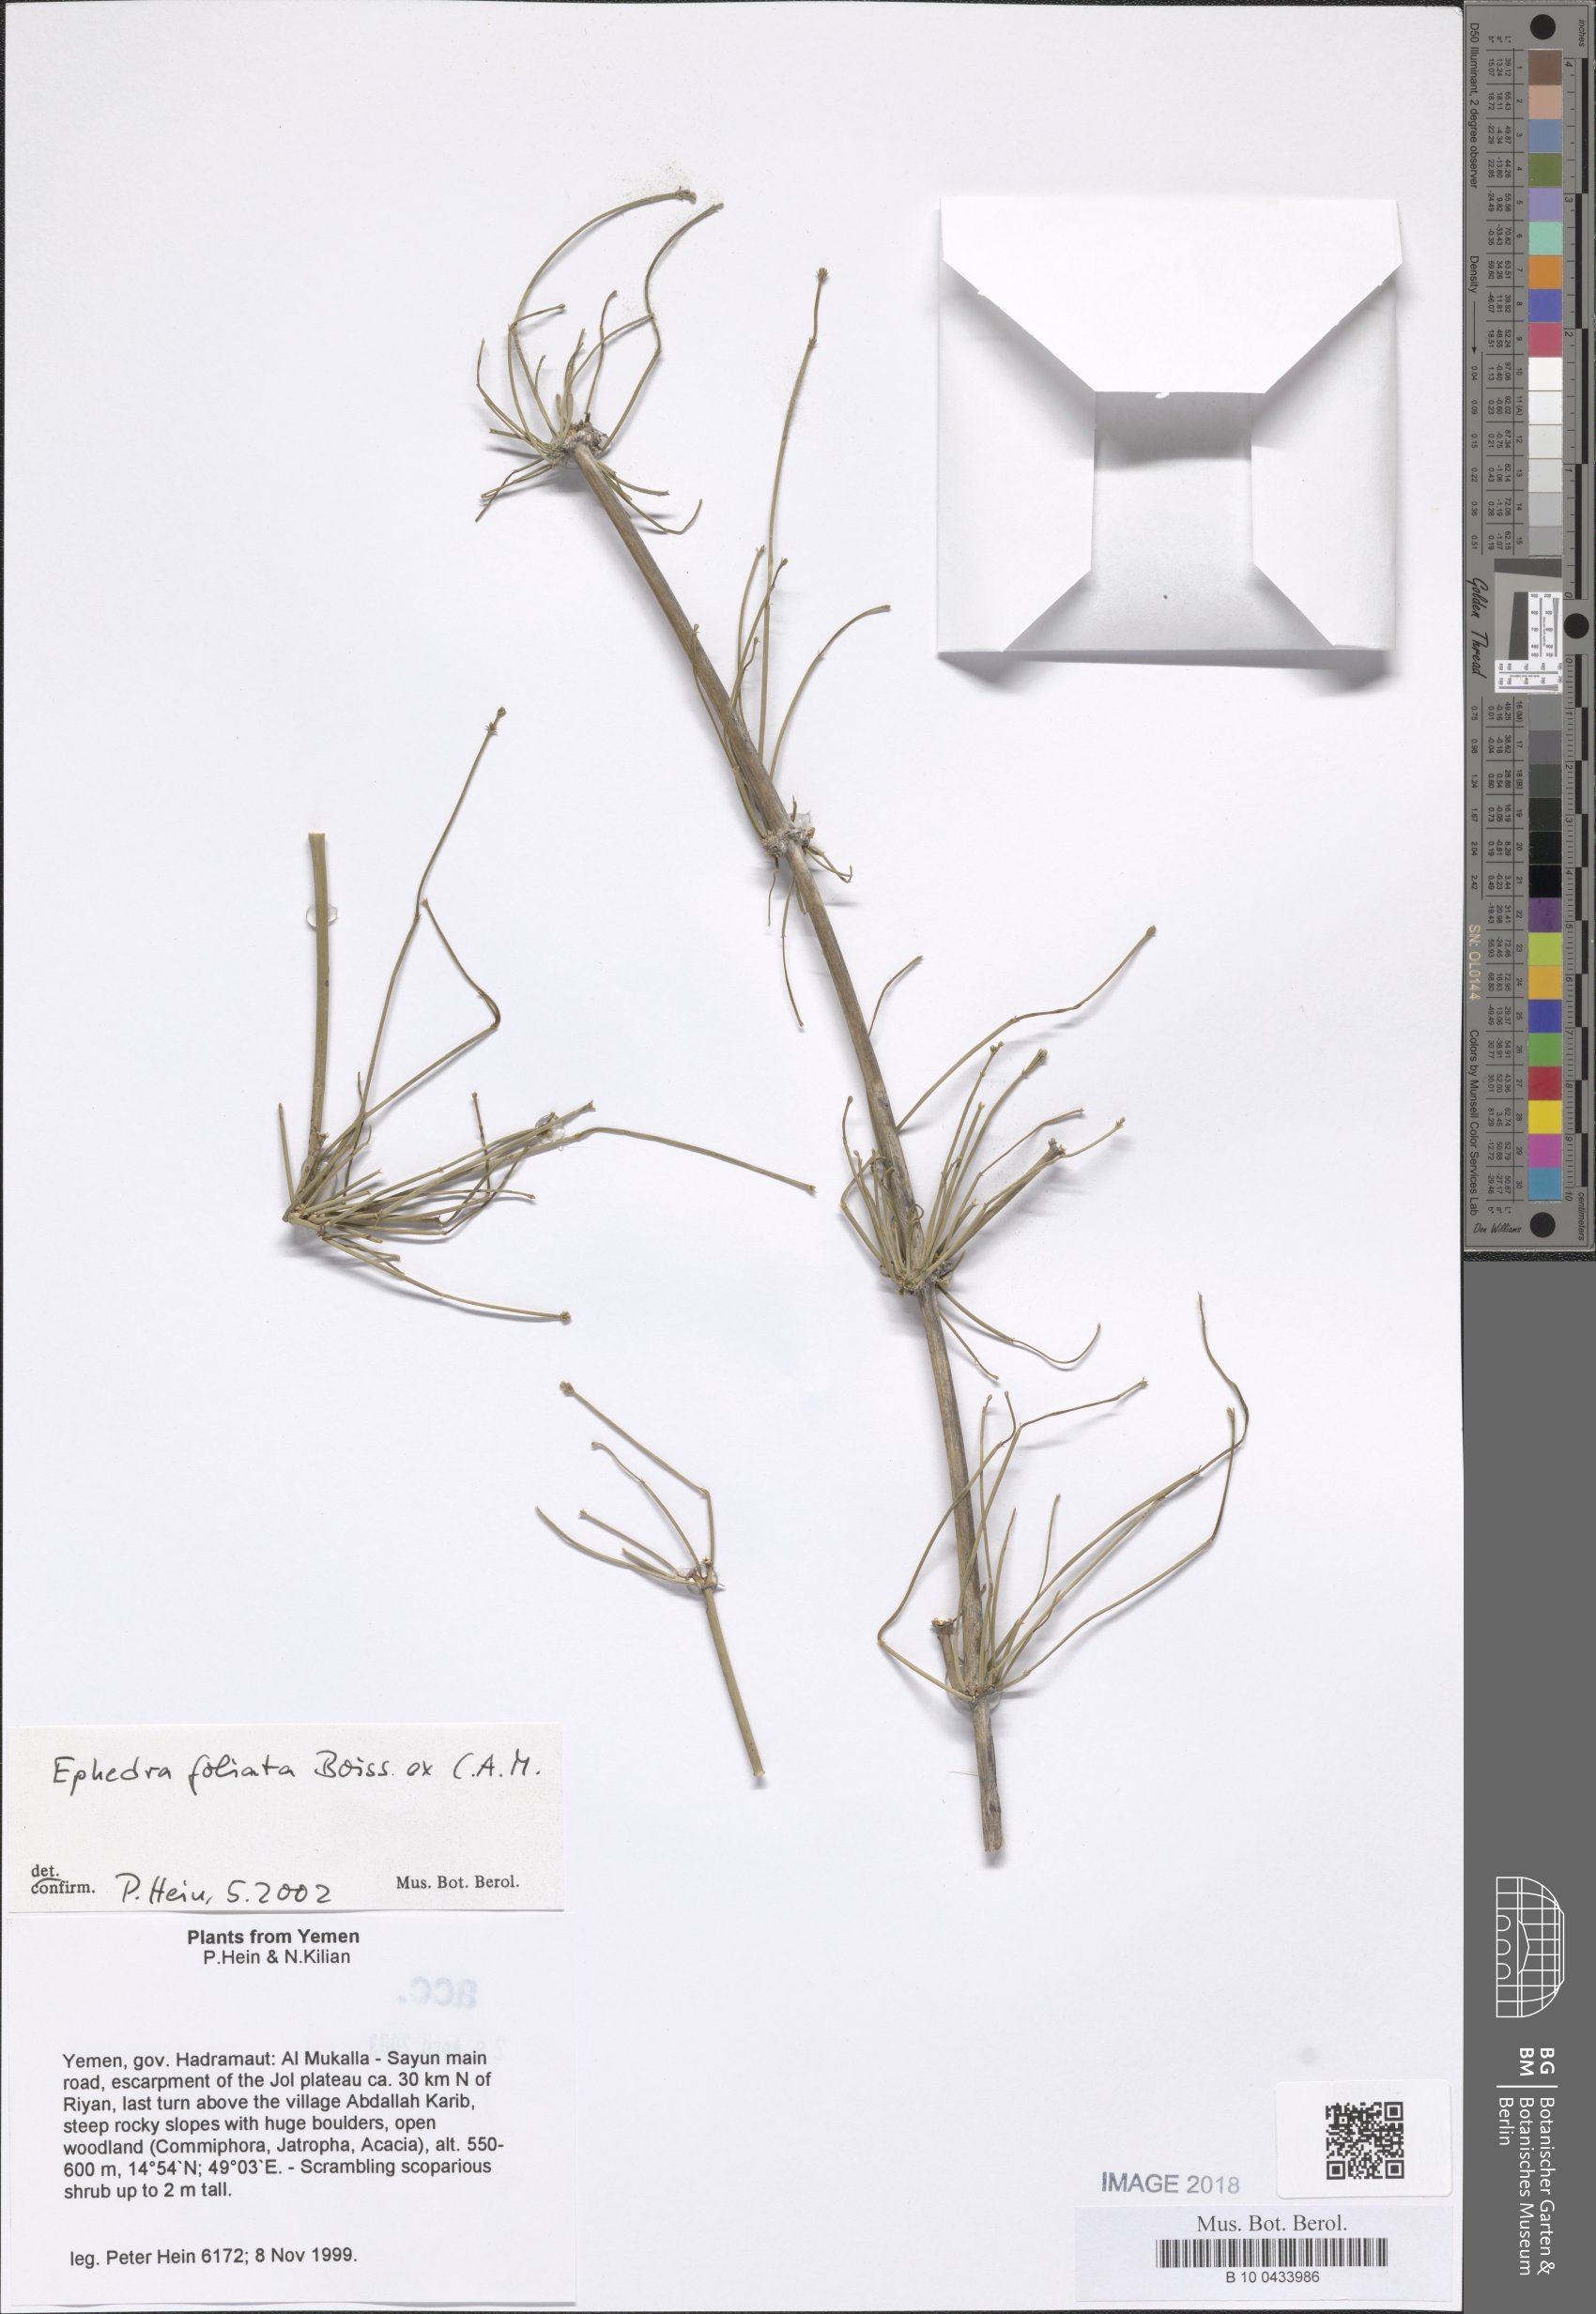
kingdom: Plantae
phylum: Tracheophyta
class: Gnetopsida
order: Ephedrales
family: Ephedraceae
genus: Ephedra
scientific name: Ephedra ciliata
